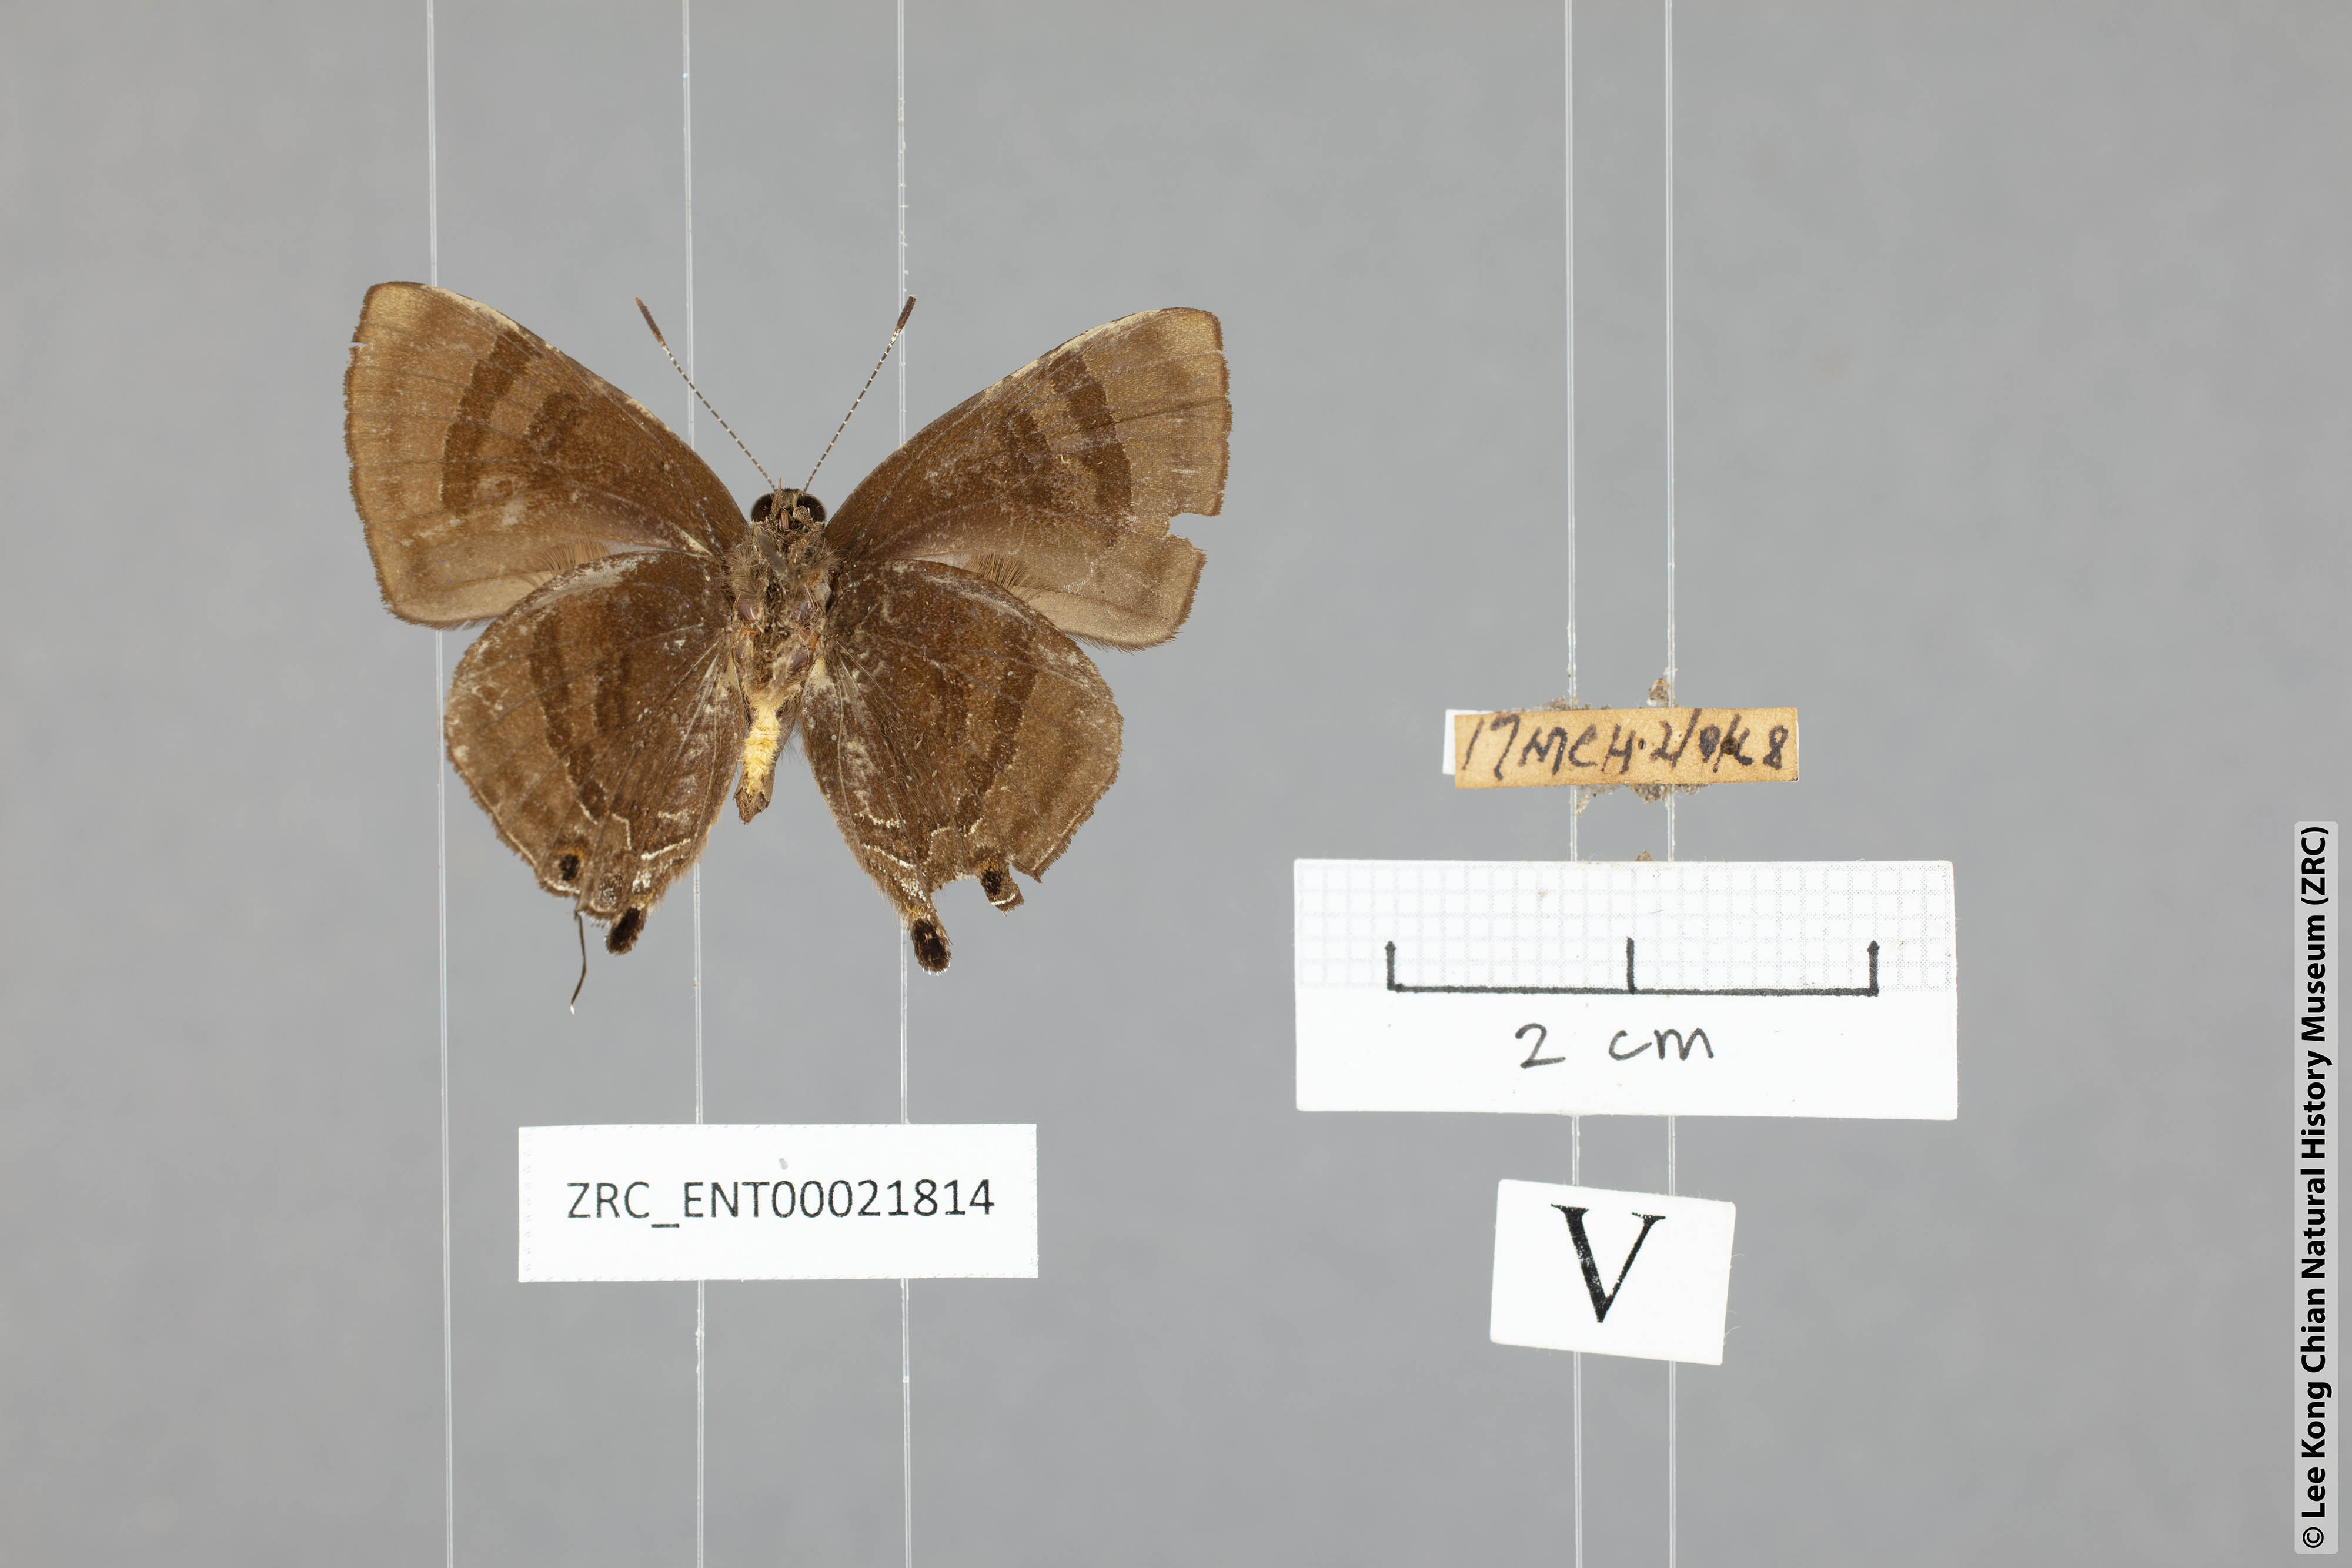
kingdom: Animalia
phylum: Arthropoda
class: Insecta
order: Lepidoptera
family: Lycaenidae
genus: Rapala
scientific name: Rapala rhoecus
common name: Brilliant flash
